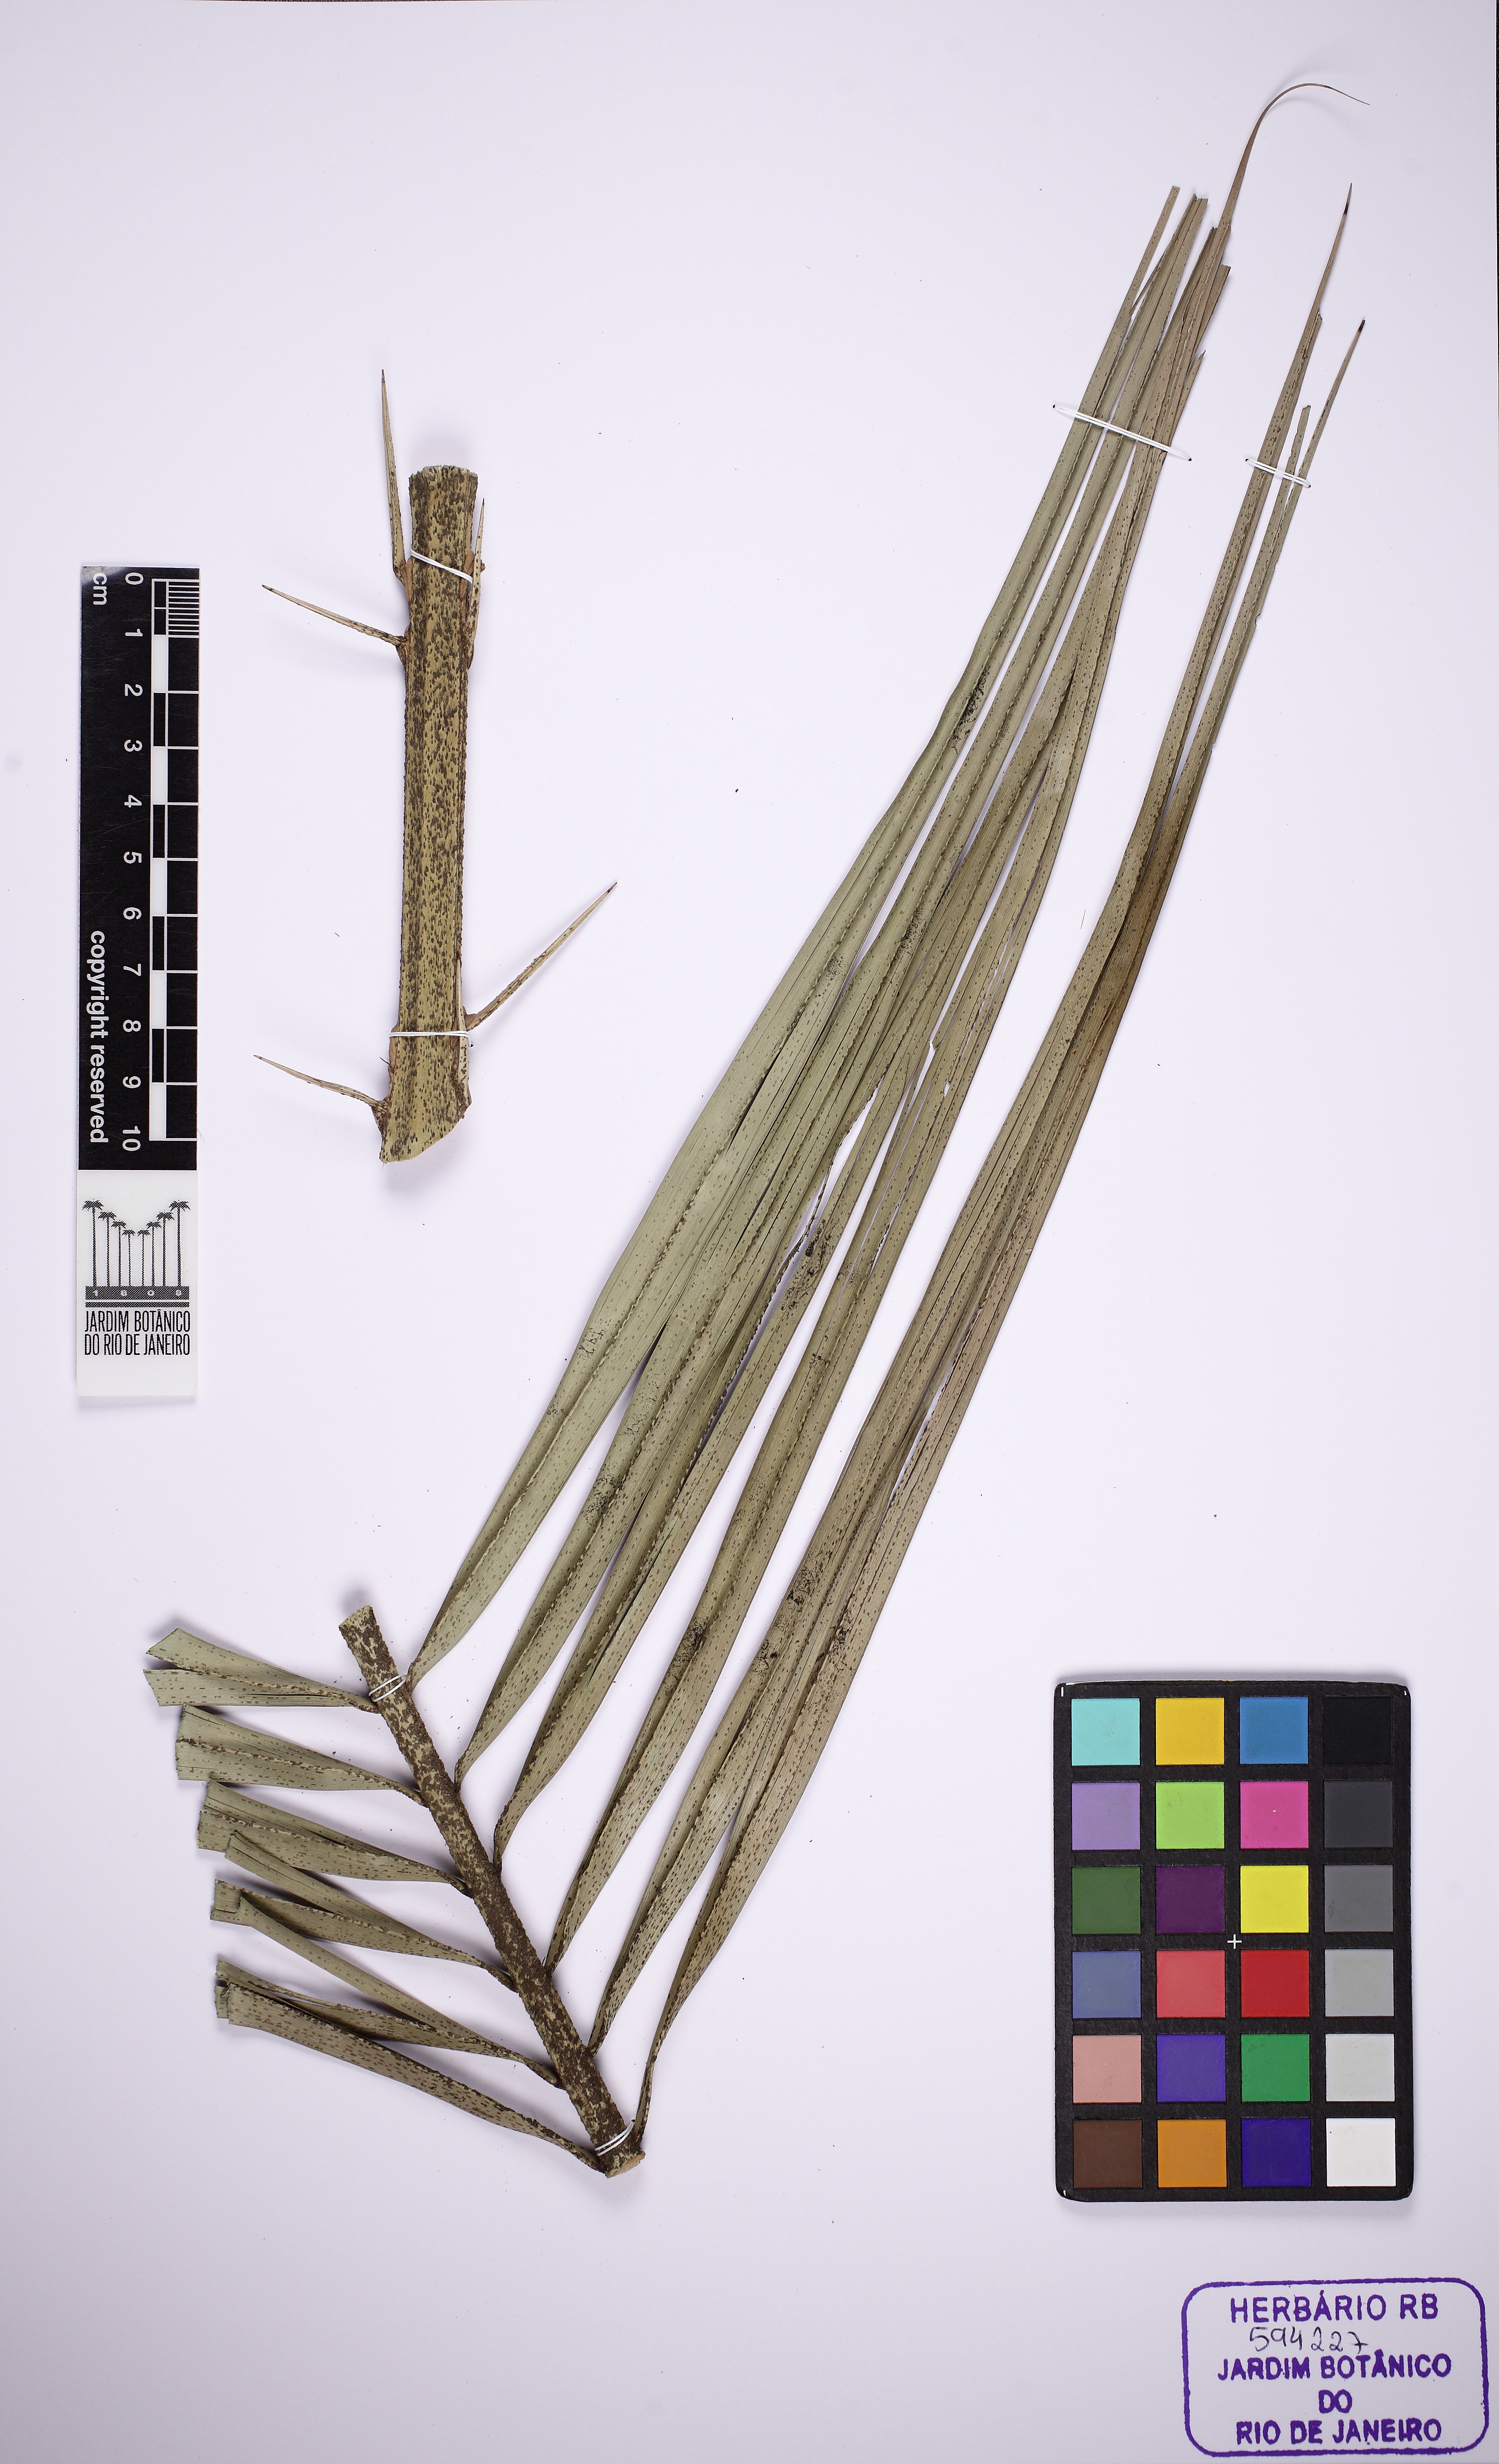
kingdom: Plantae
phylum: Tracheophyta
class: Liliopsida
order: Arecales
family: Arecaceae
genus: Phoenix
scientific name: Phoenix
